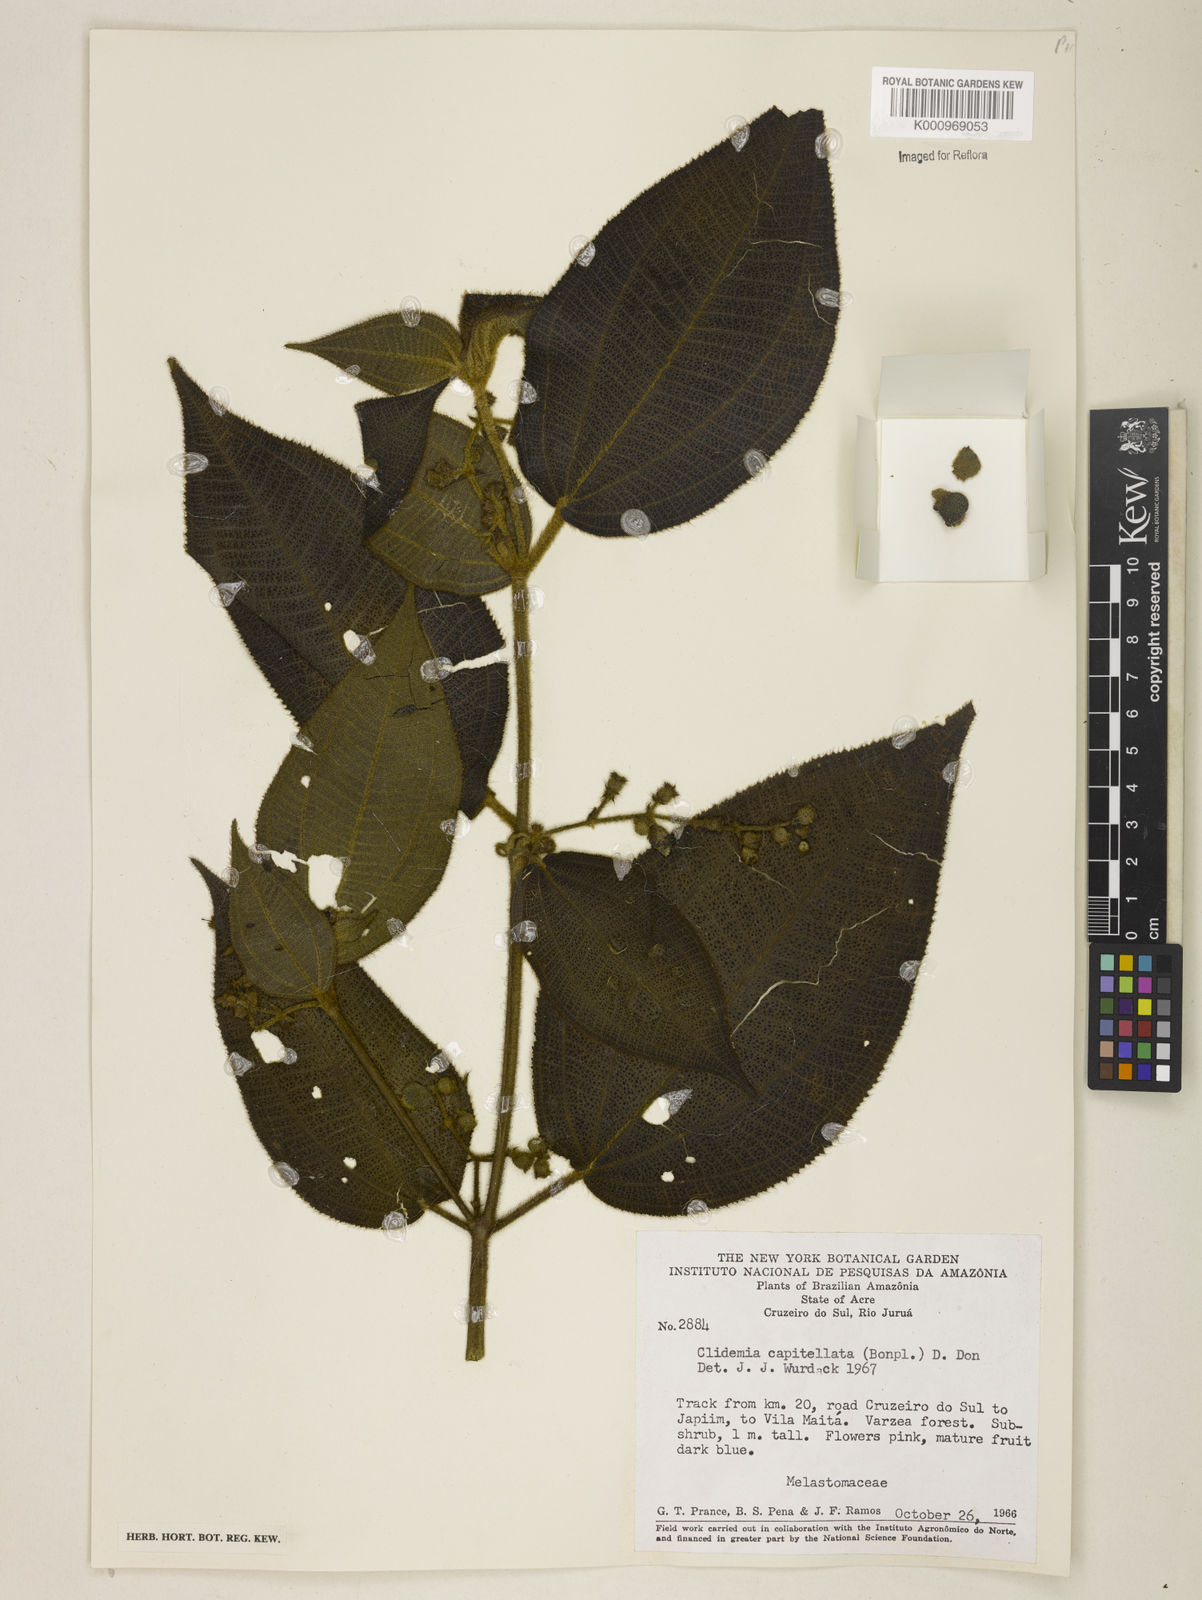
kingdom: Plantae
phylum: Tracheophyta
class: Magnoliopsida
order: Myrtales
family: Melastomataceae
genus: Miconia
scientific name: Miconia dependens
